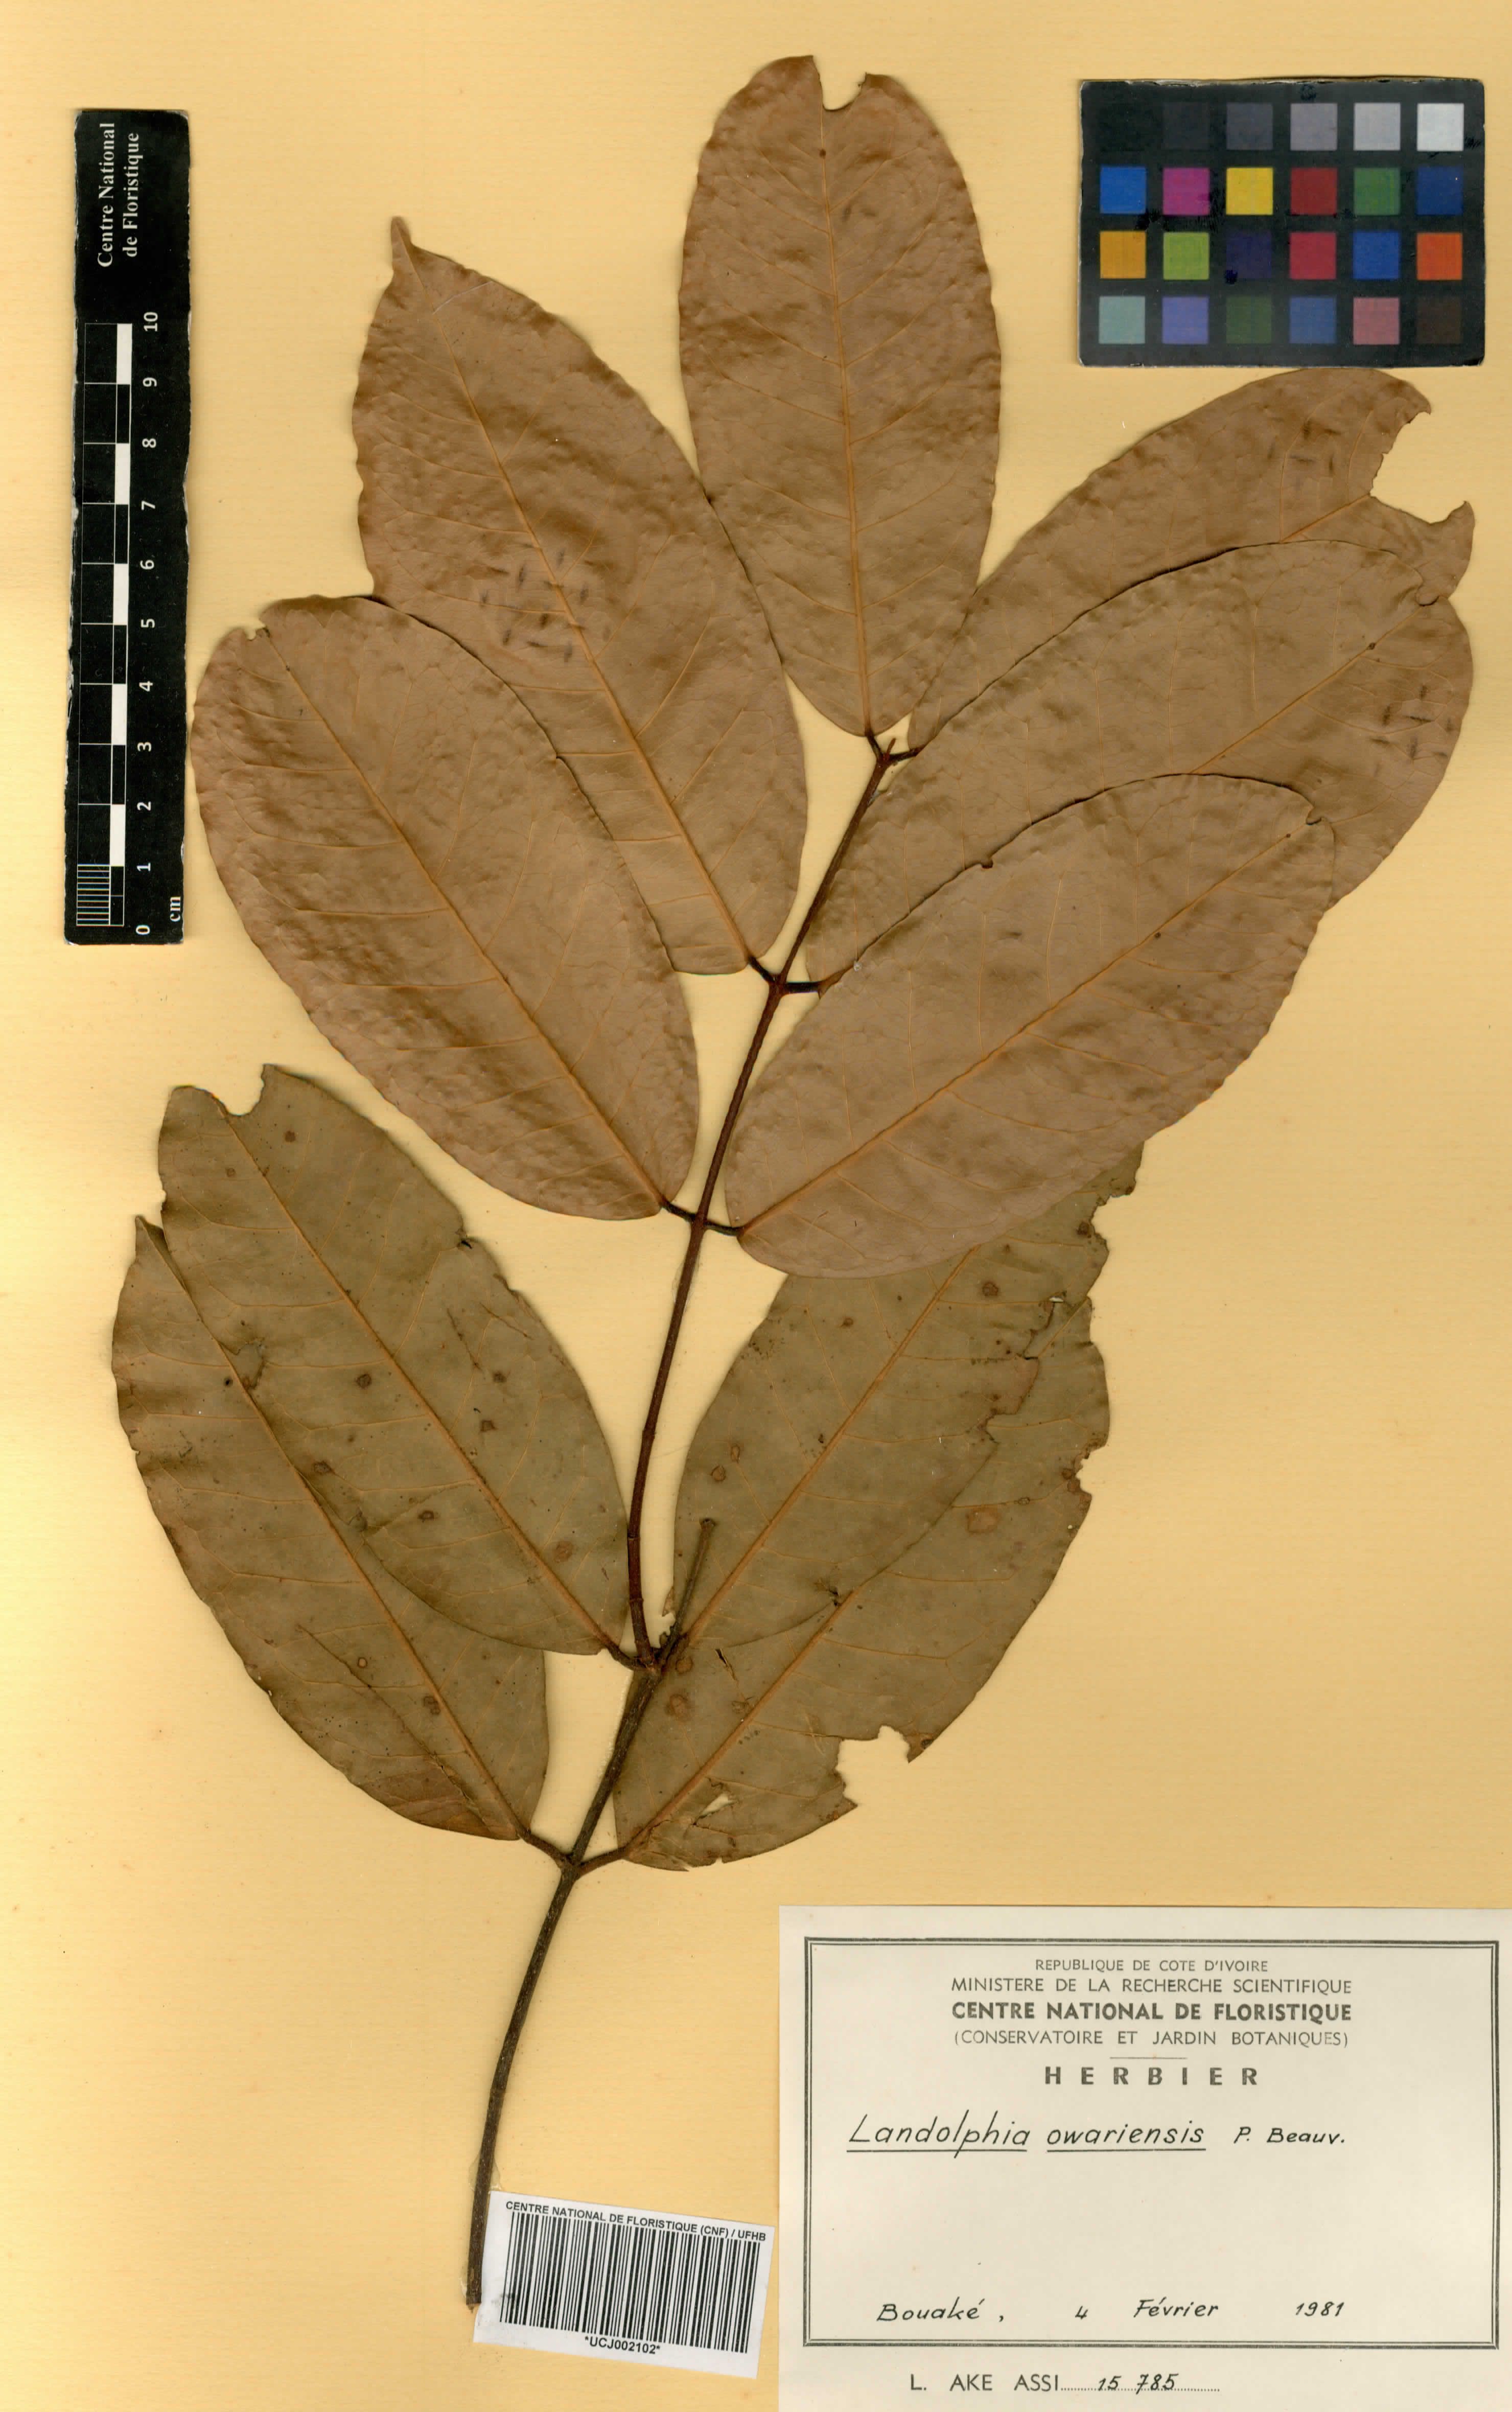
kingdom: Plantae
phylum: Tracheophyta
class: Magnoliopsida
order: Gentianales
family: Apocynaceae
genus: Landolphia
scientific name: Landolphia owariensis
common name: White-ball-rubber
